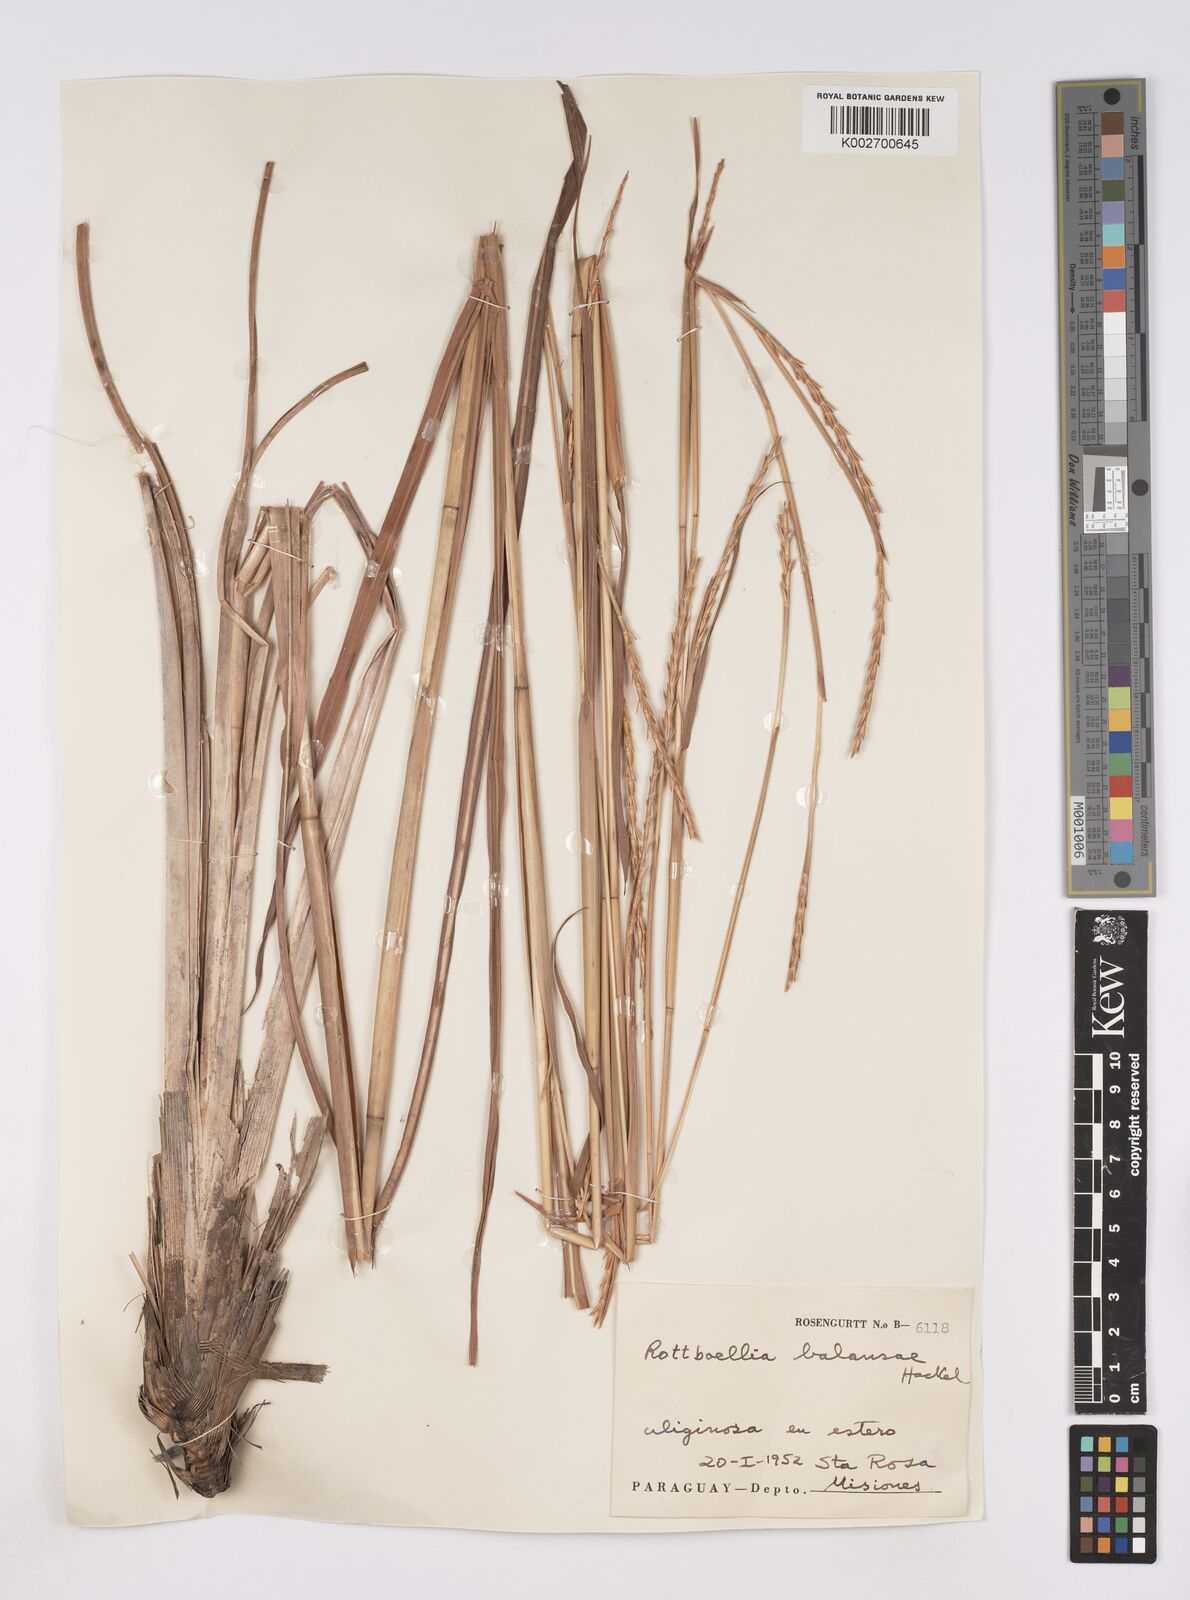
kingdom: Plantae
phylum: Tracheophyta
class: Liliopsida
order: Poales
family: Poaceae
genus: Rottboellia
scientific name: Rottboellia balansae
